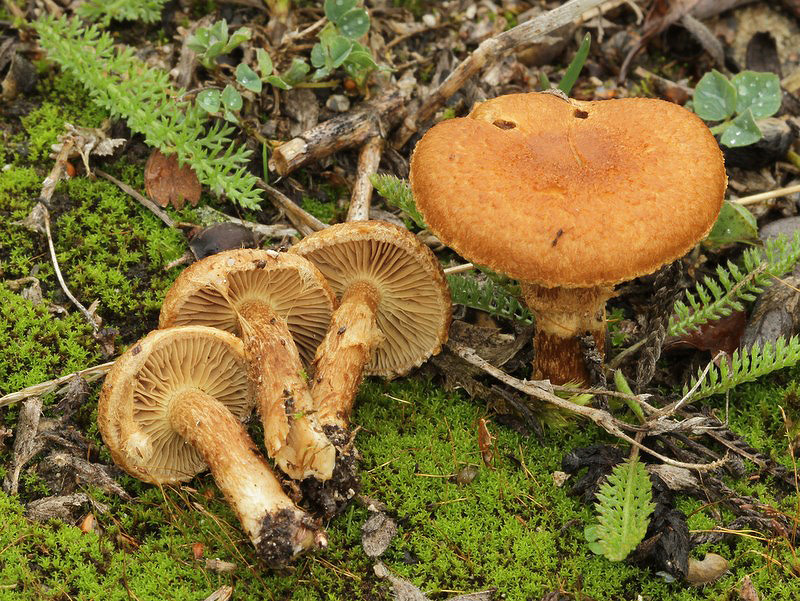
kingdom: Fungi
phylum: Basidiomycota
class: Agaricomycetes
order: Agaricales
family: Inocybaceae
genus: Mallocybe
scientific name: Mallocybe plebeia
